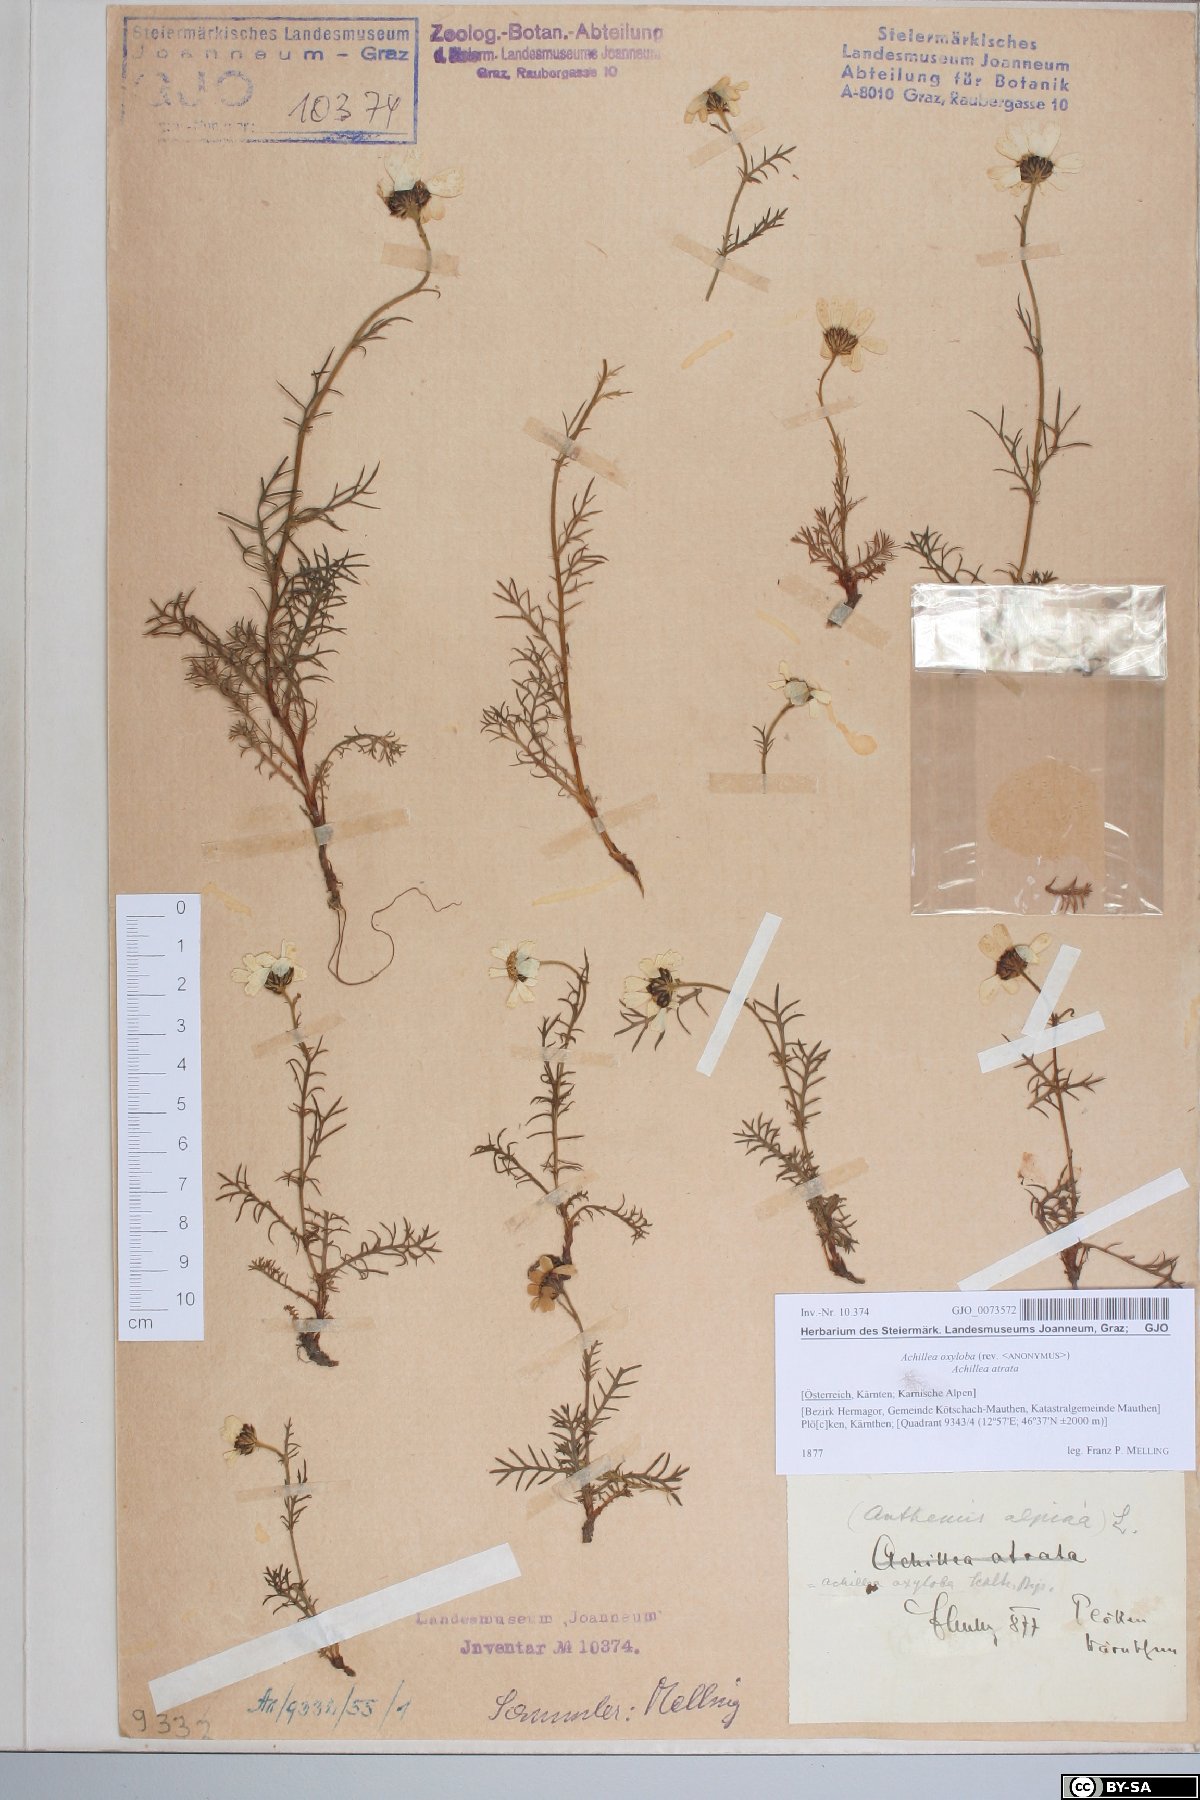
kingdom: Plantae
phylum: Tracheophyta
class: Magnoliopsida
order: Asterales
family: Asteraceae
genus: Achillea
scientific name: Achillea oxyloba
